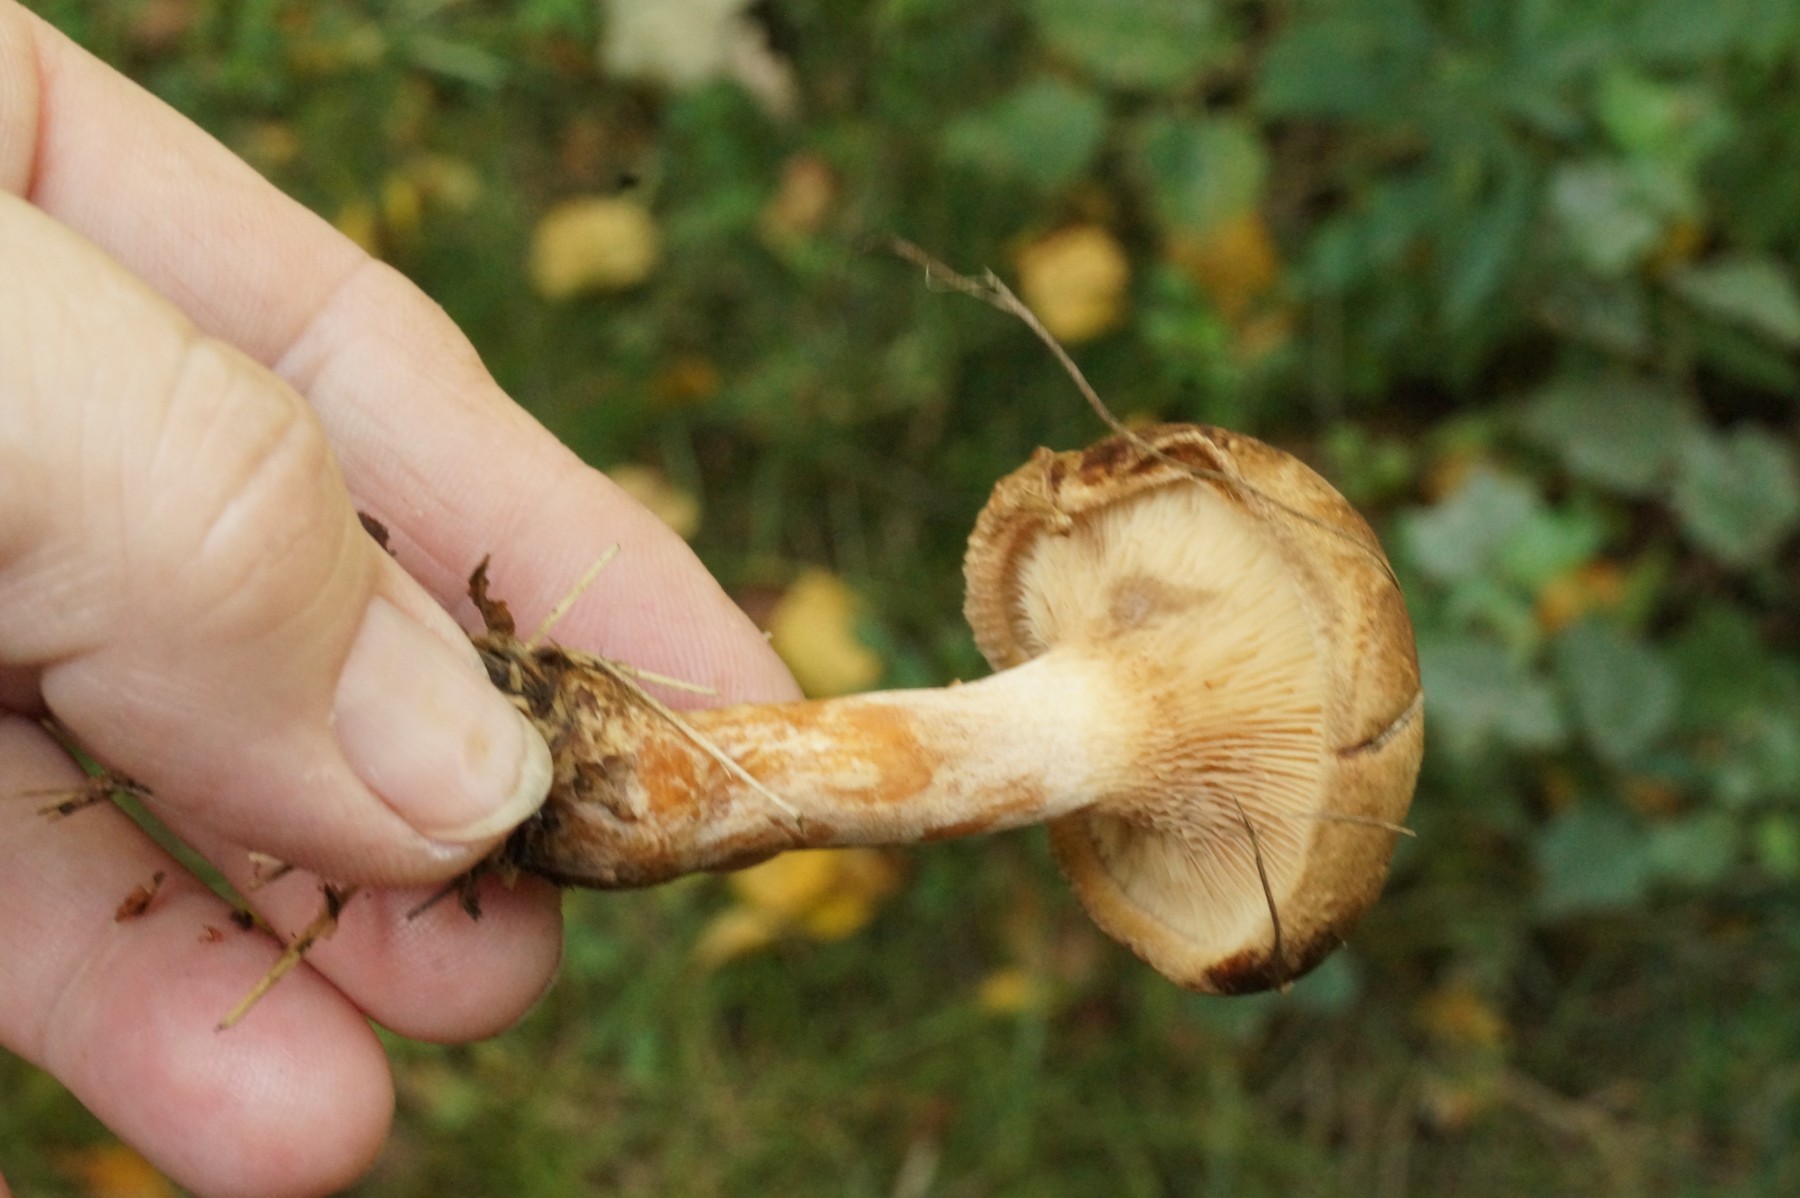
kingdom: Fungi
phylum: Basidiomycota
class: Agaricomycetes
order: Boletales
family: Paxillaceae
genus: Paxillus
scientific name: Paxillus involutus
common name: almindelig netbladhat
